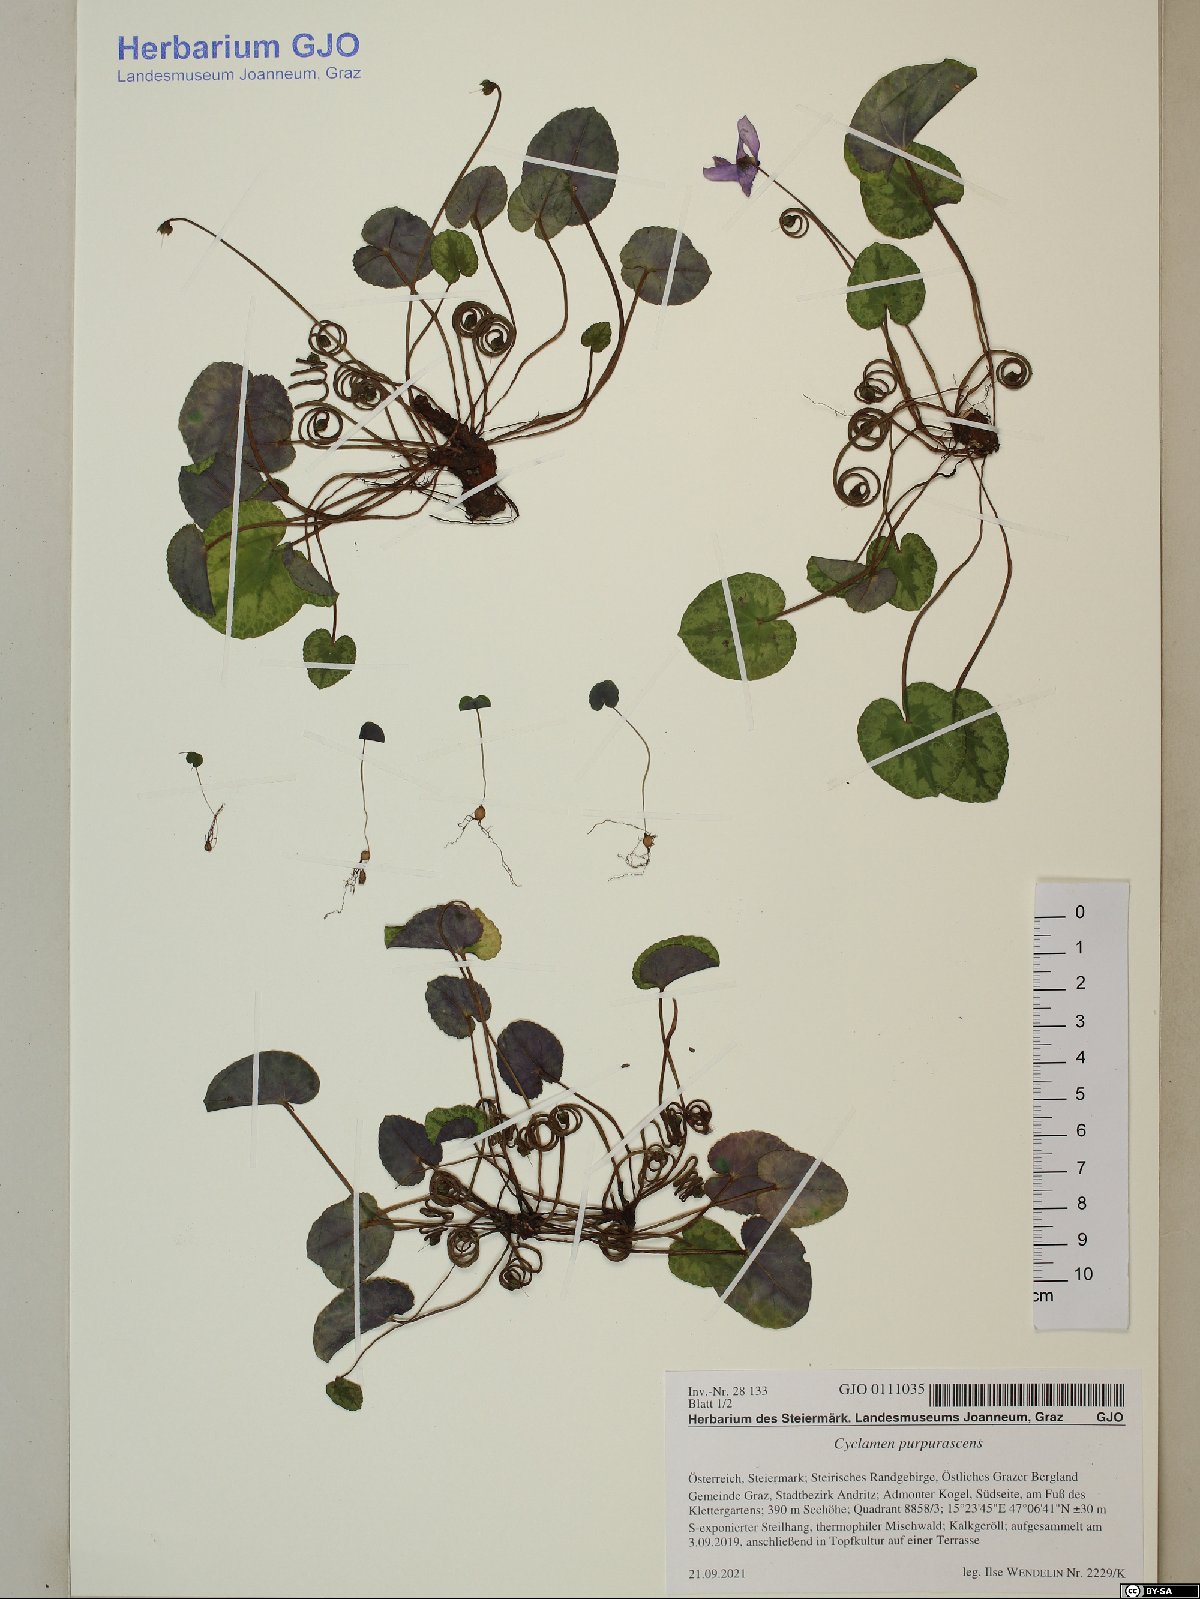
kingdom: Plantae
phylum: Tracheophyta
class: Magnoliopsida
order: Ericales
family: Primulaceae
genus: Cyclamen
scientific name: Cyclamen purpurascens
